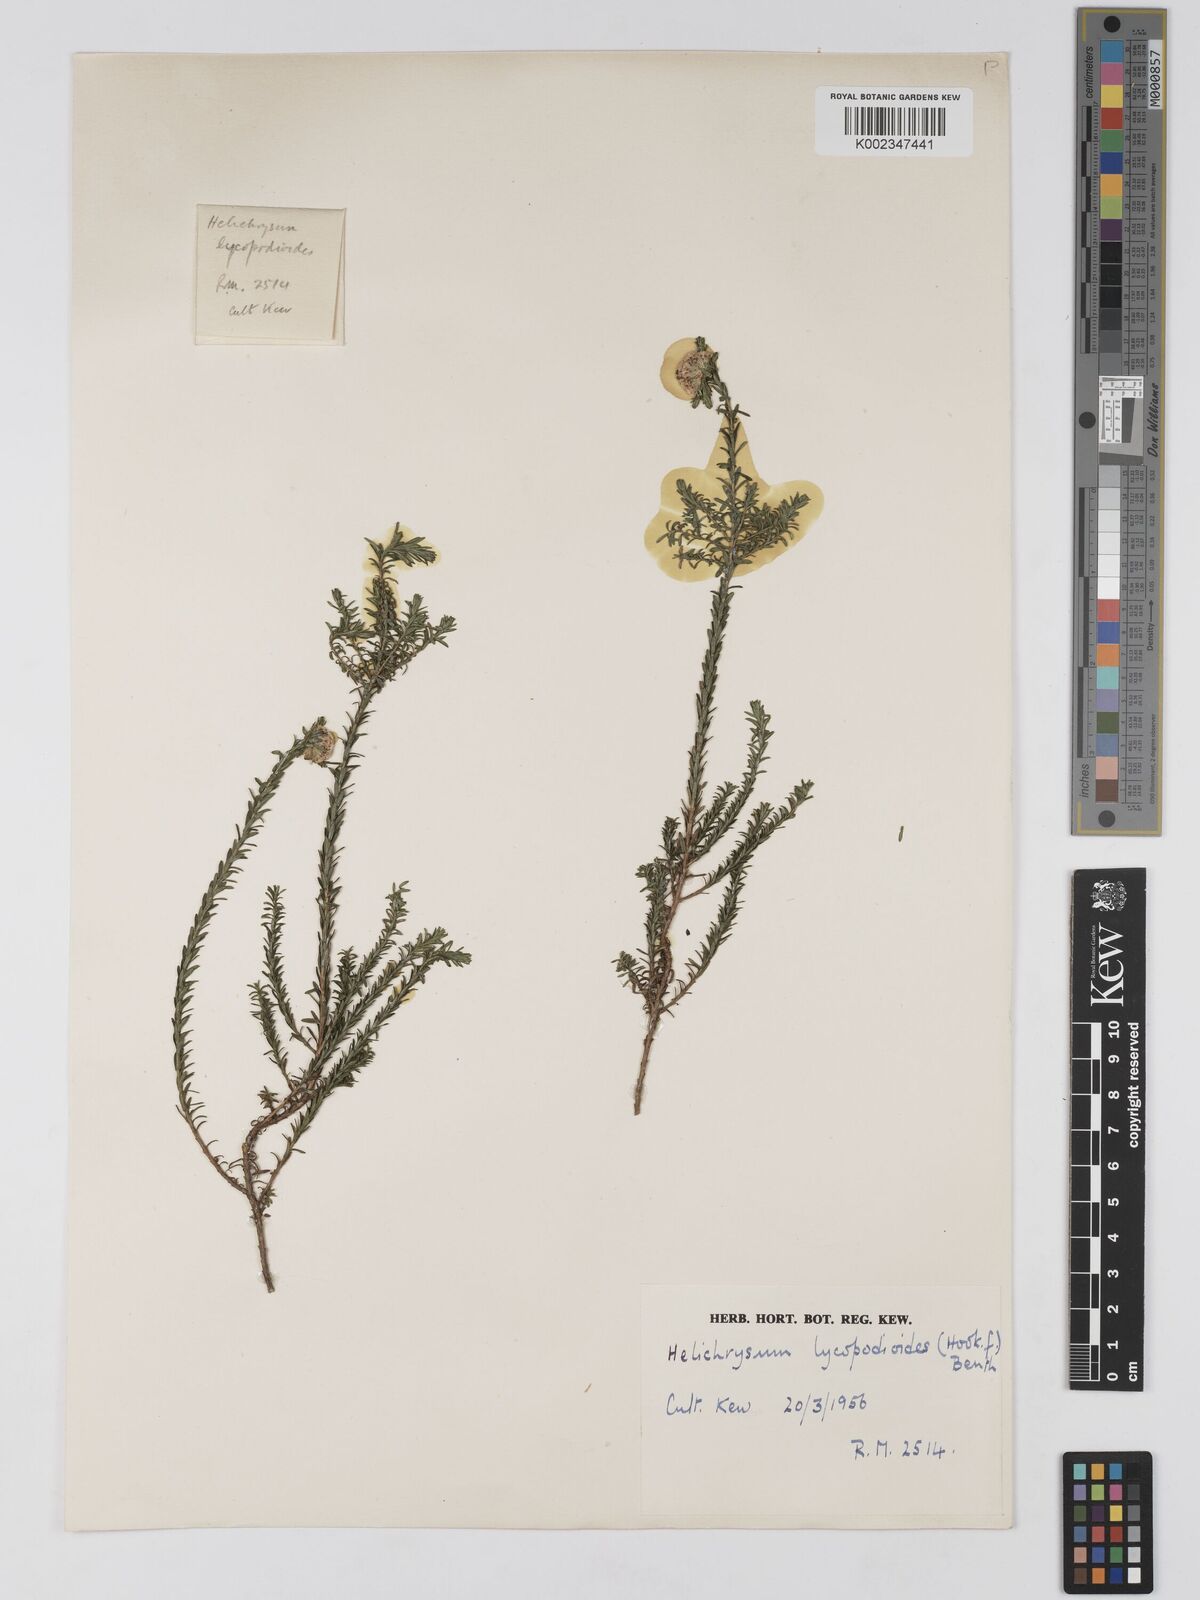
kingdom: Plantae
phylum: Tracheophyta
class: Magnoliopsida
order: Asterales
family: Asteraceae
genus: Ozothamnus
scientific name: Ozothamnus lycopodioides
